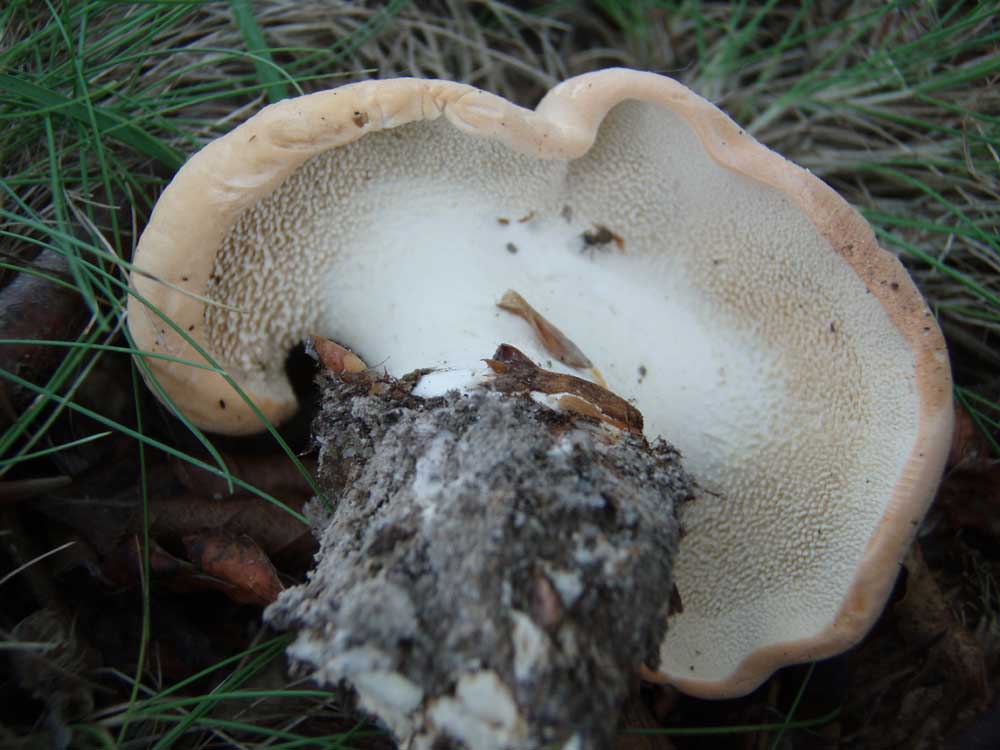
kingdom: Fungi
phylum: Basidiomycota
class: Agaricomycetes
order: Cantharellales
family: Hydnaceae
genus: Hydnum
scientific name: Hydnum repandum
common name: almindelig pigsvamp
